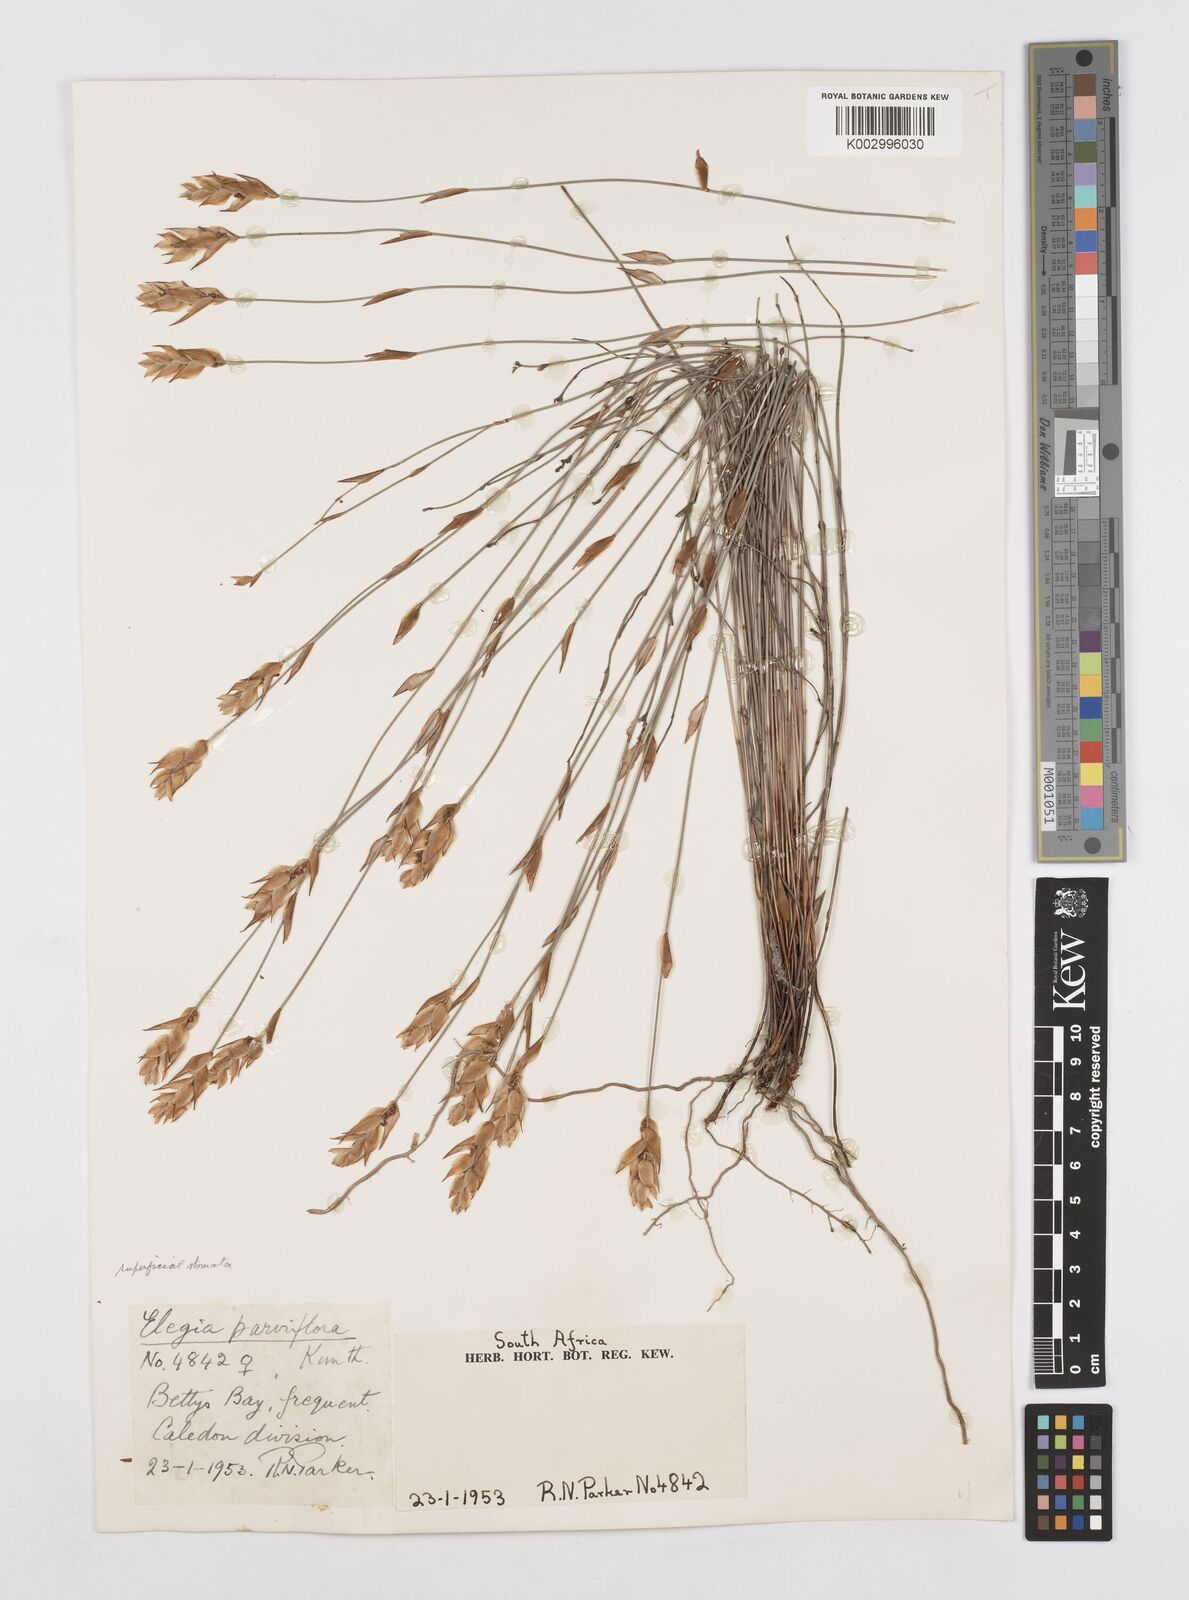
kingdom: Plantae
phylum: Tracheophyta
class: Liliopsida
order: Poales
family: Restionaceae
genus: Cannomois
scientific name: Cannomois parviflora
